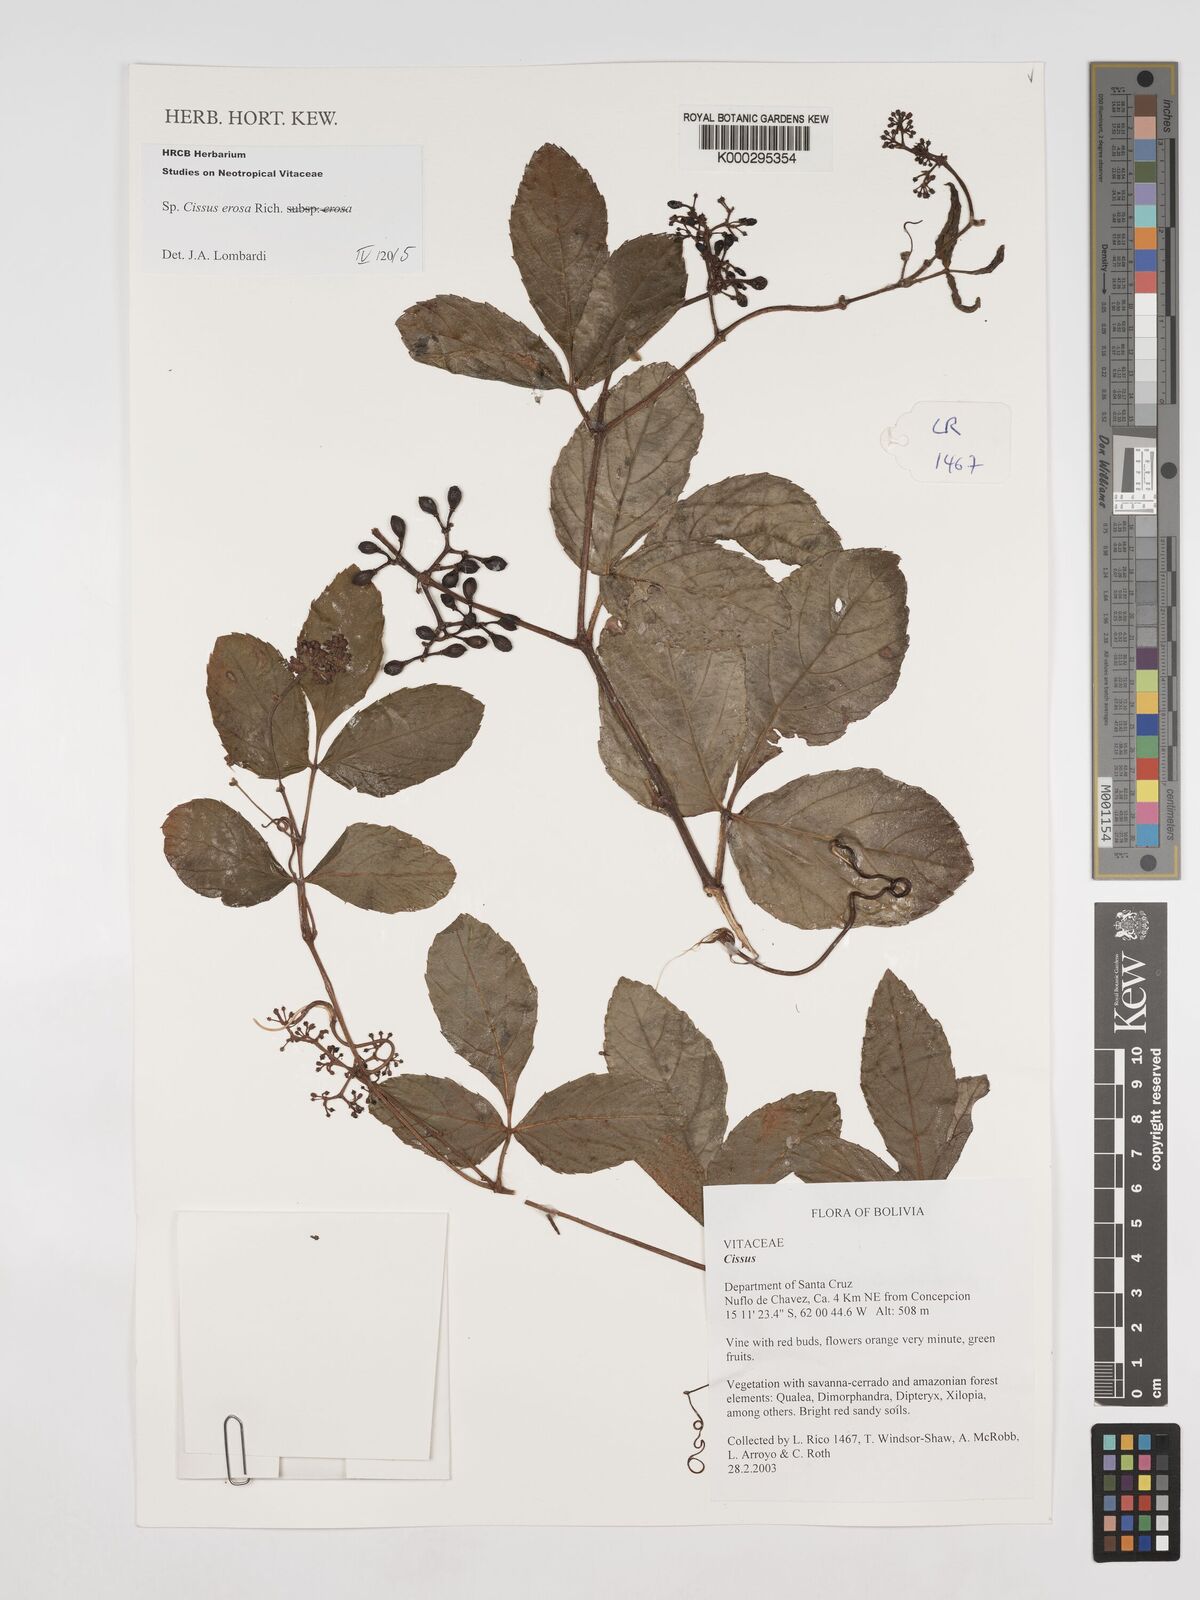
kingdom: Plantae
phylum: Tracheophyta
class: Magnoliopsida
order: Vitales
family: Vitaceae
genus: Cissus
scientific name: Cissus erosa
